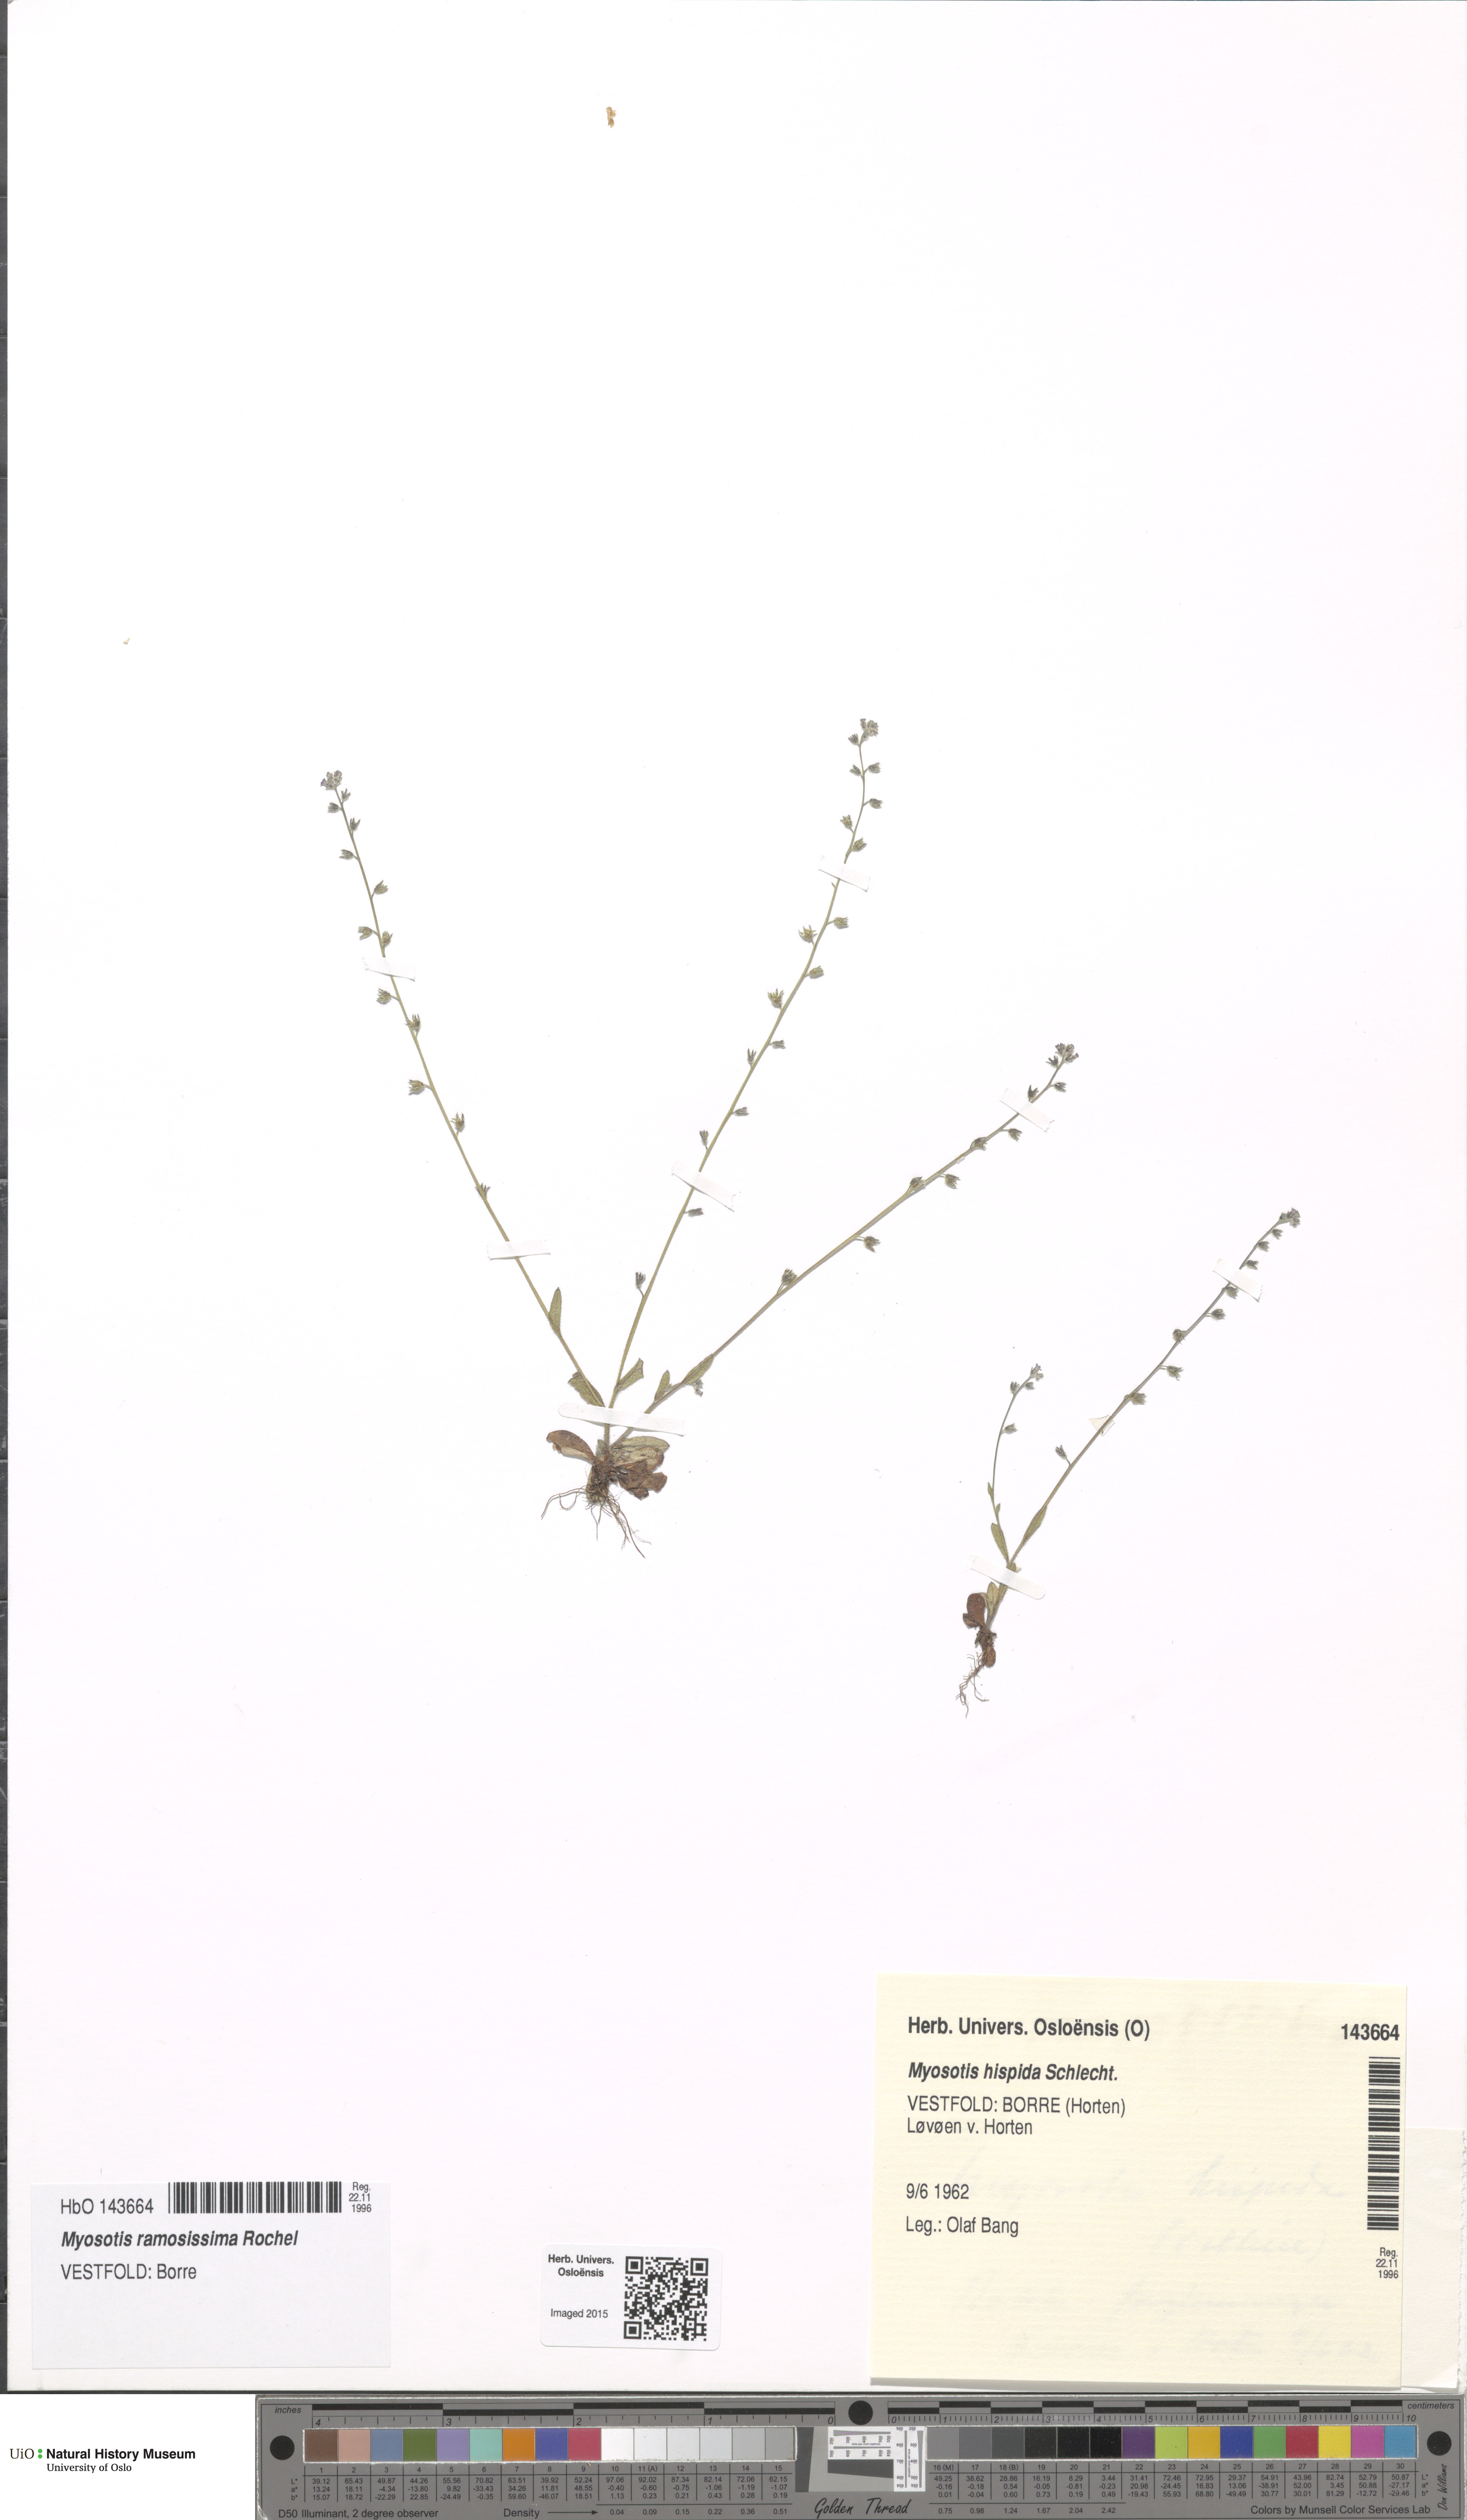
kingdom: Plantae
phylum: Tracheophyta
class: Magnoliopsida
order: Boraginales
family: Boraginaceae
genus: Myosotis
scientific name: Myosotis ramosissima
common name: Early forget-me-not
